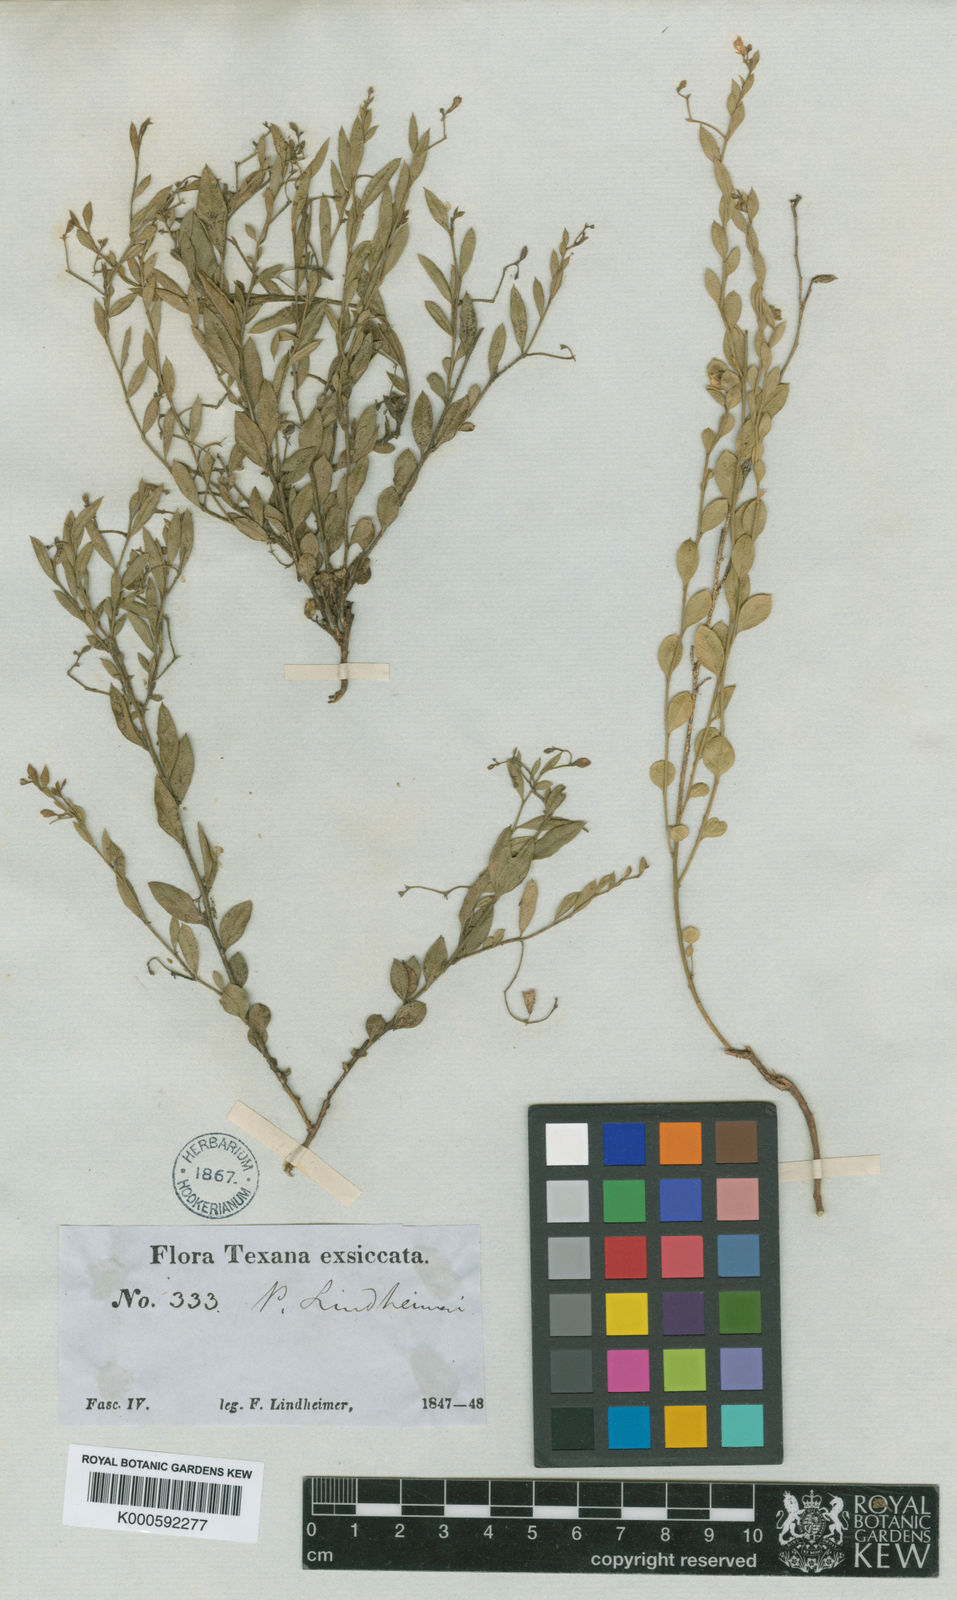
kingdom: Plantae
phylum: Tracheophyta
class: Magnoliopsida
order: Fabales
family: Polygalaceae
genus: Rhinotropis
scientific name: Rhinotropis lindheimeri
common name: Shrubby milkwort
